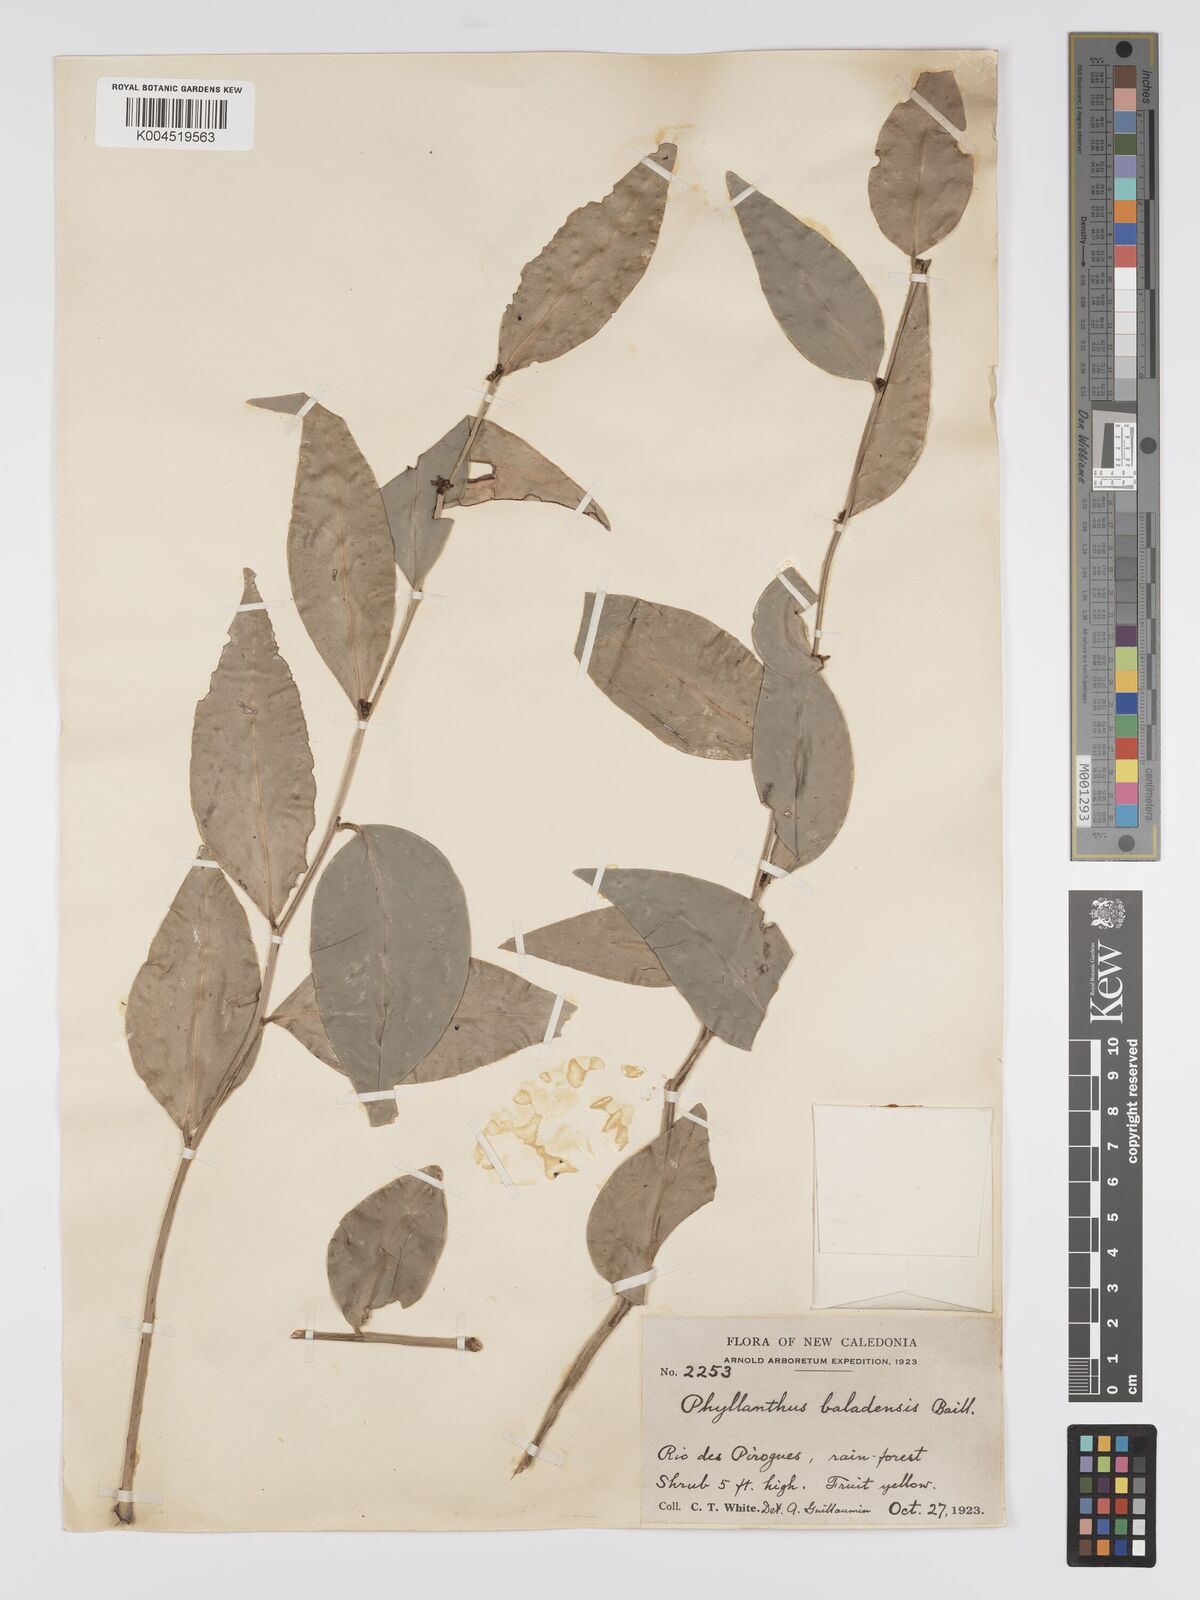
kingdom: Plantae
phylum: Tracheophyta
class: Magnoliopsida
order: Malpighiales
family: Phyllanthaceae
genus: Phyllanthus
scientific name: Phyllanthus baladensis
